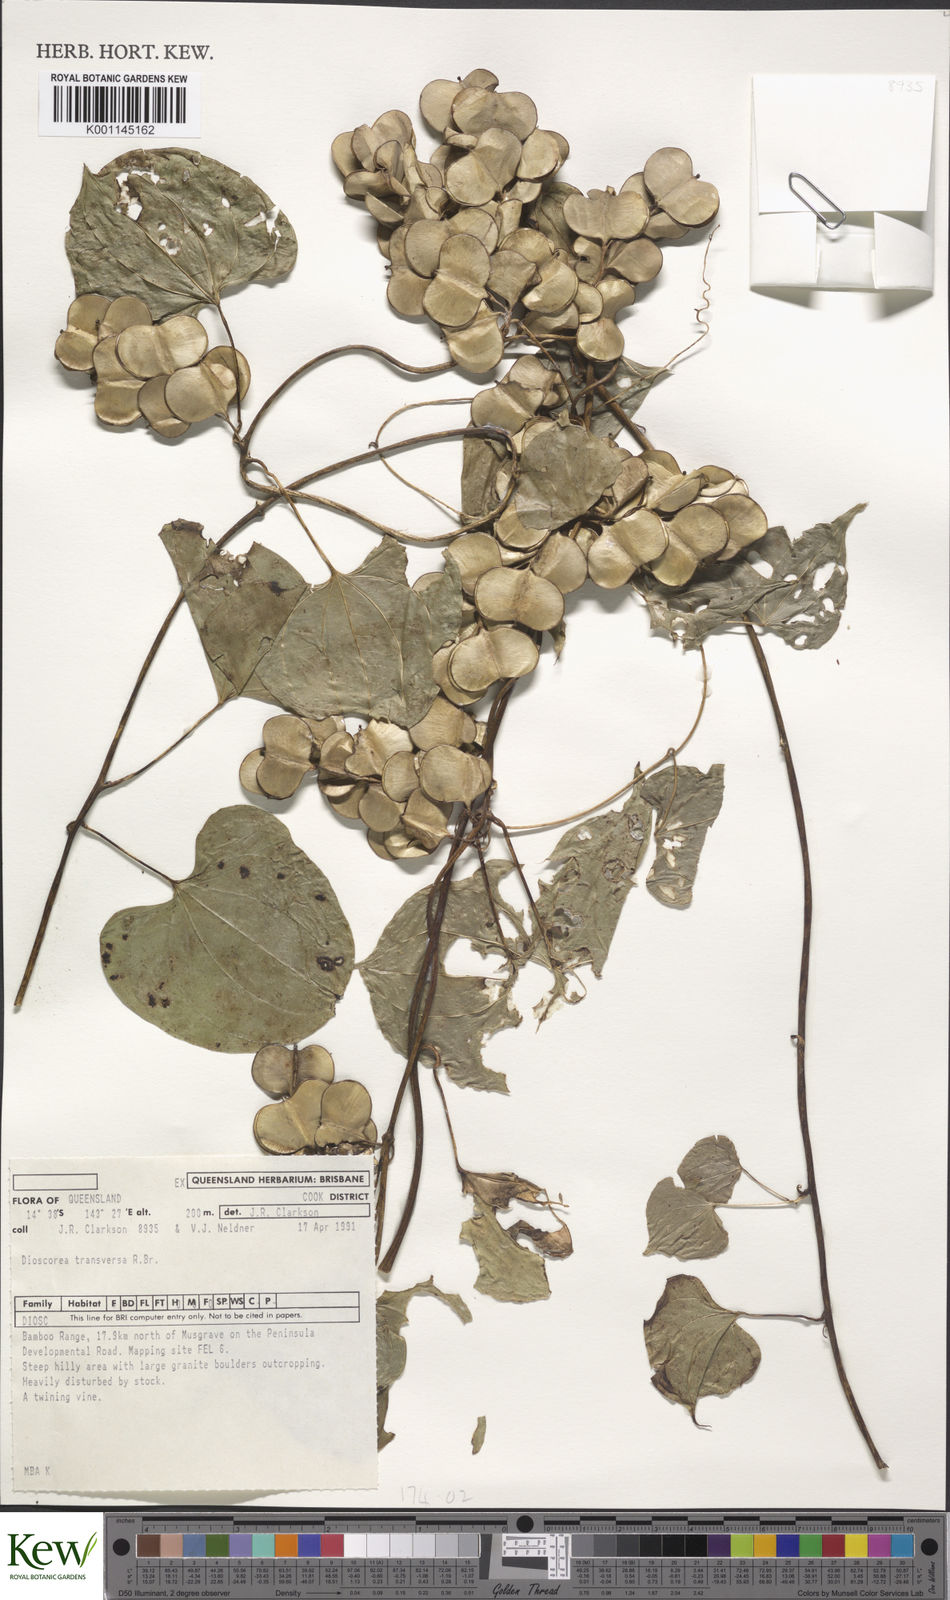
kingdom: Plantae
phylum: Tracheophyta
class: Liliopsida
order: Dioscoreales
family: Dioscoreaceae
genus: Dioscorea
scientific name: Dioscorea transversa
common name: Long yam
